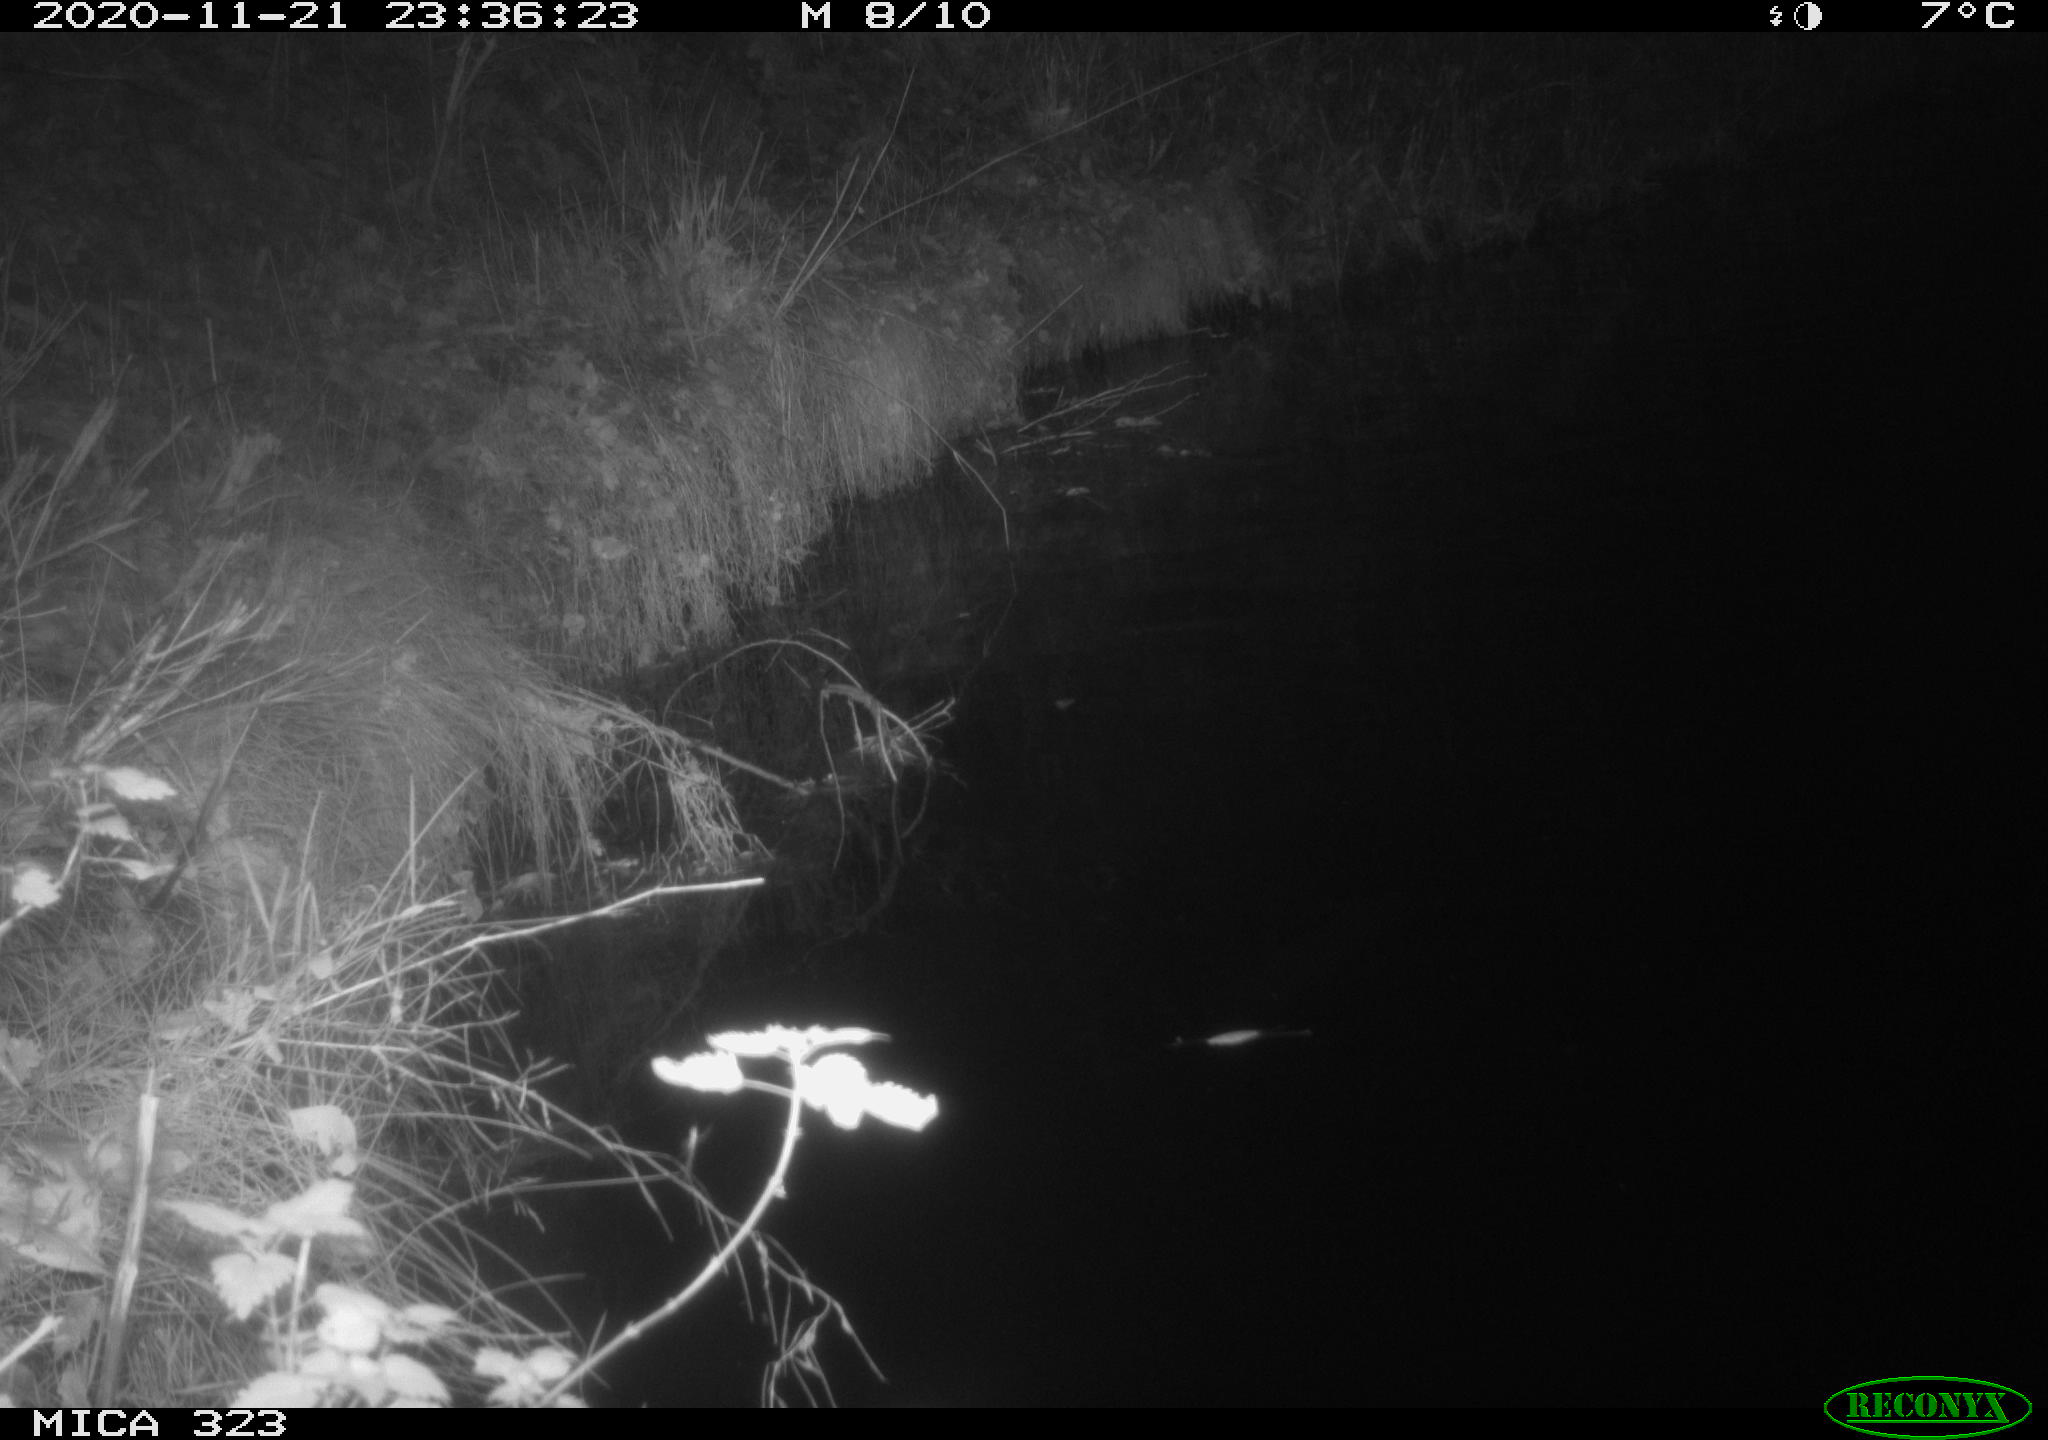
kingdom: Animalia
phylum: Chordata
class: Aves
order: Anseriformes
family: Anatidae
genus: Anas
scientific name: Anas platyrhynchos
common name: Mallard
